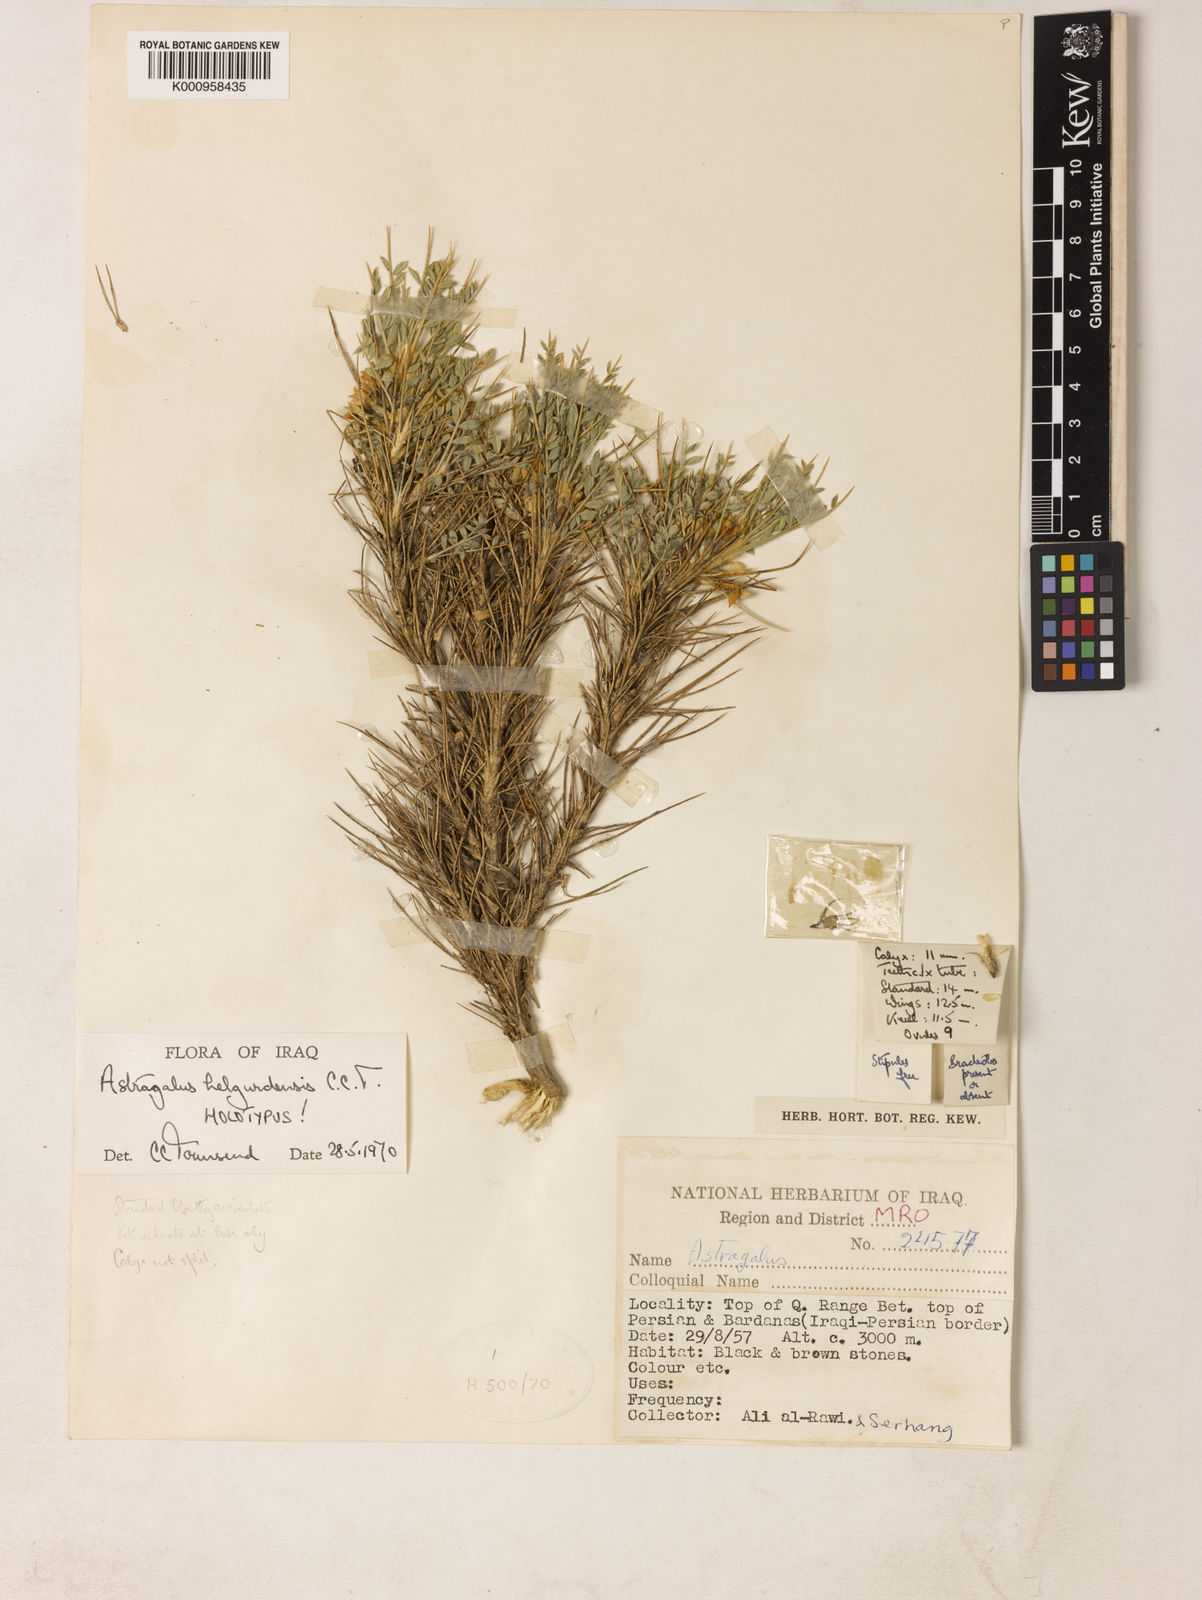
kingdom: Plantae
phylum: Tracheophyta
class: Magnoliopsida
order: Fabales
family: Fabaceae
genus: Astragalus
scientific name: Astragalus leiophyllus
